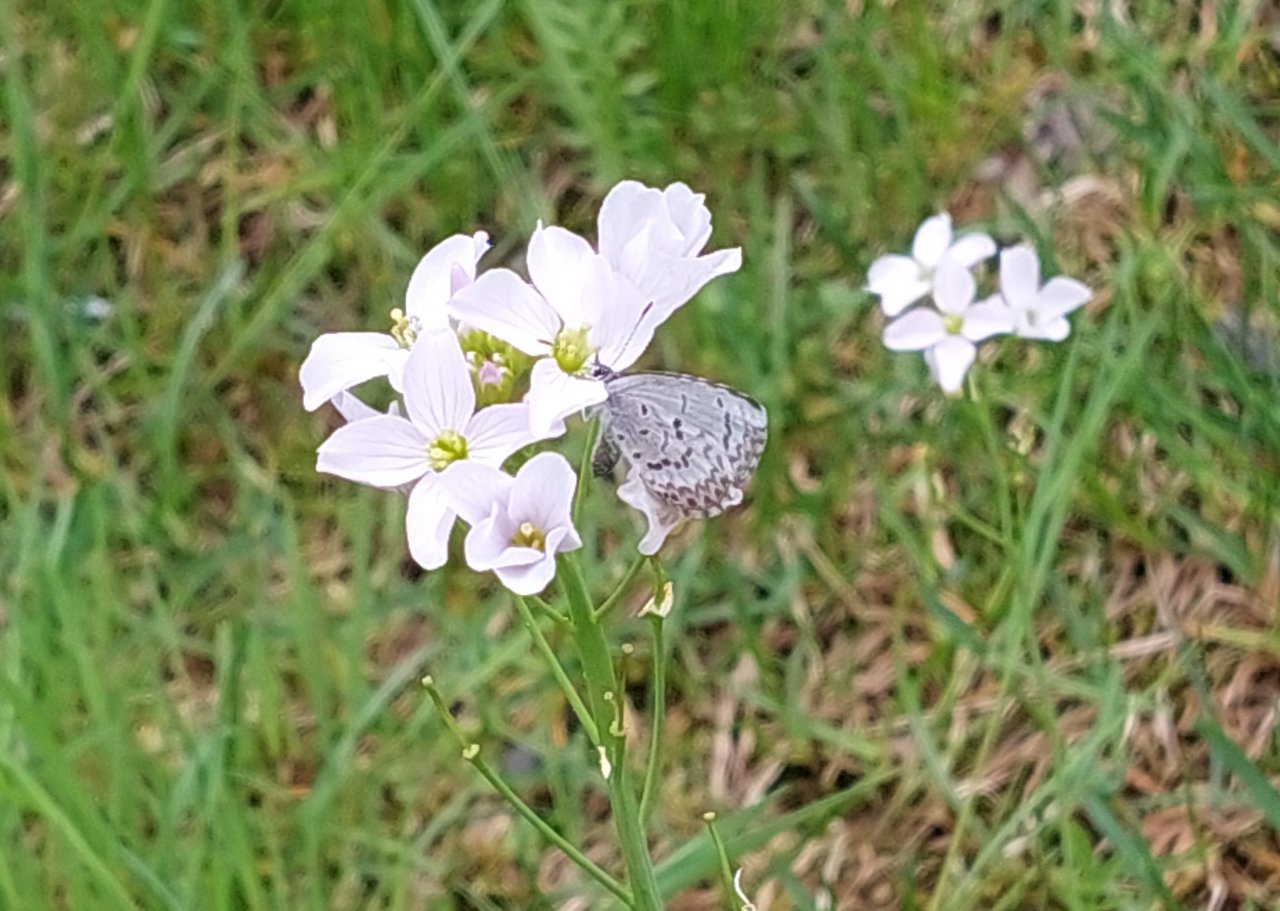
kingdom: Animalia
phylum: Arthropoda
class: Insecta
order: Lepidoptera
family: Lycaenidae
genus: Celastrina
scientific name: Celastrina lucia
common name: Northern Spring Azure
